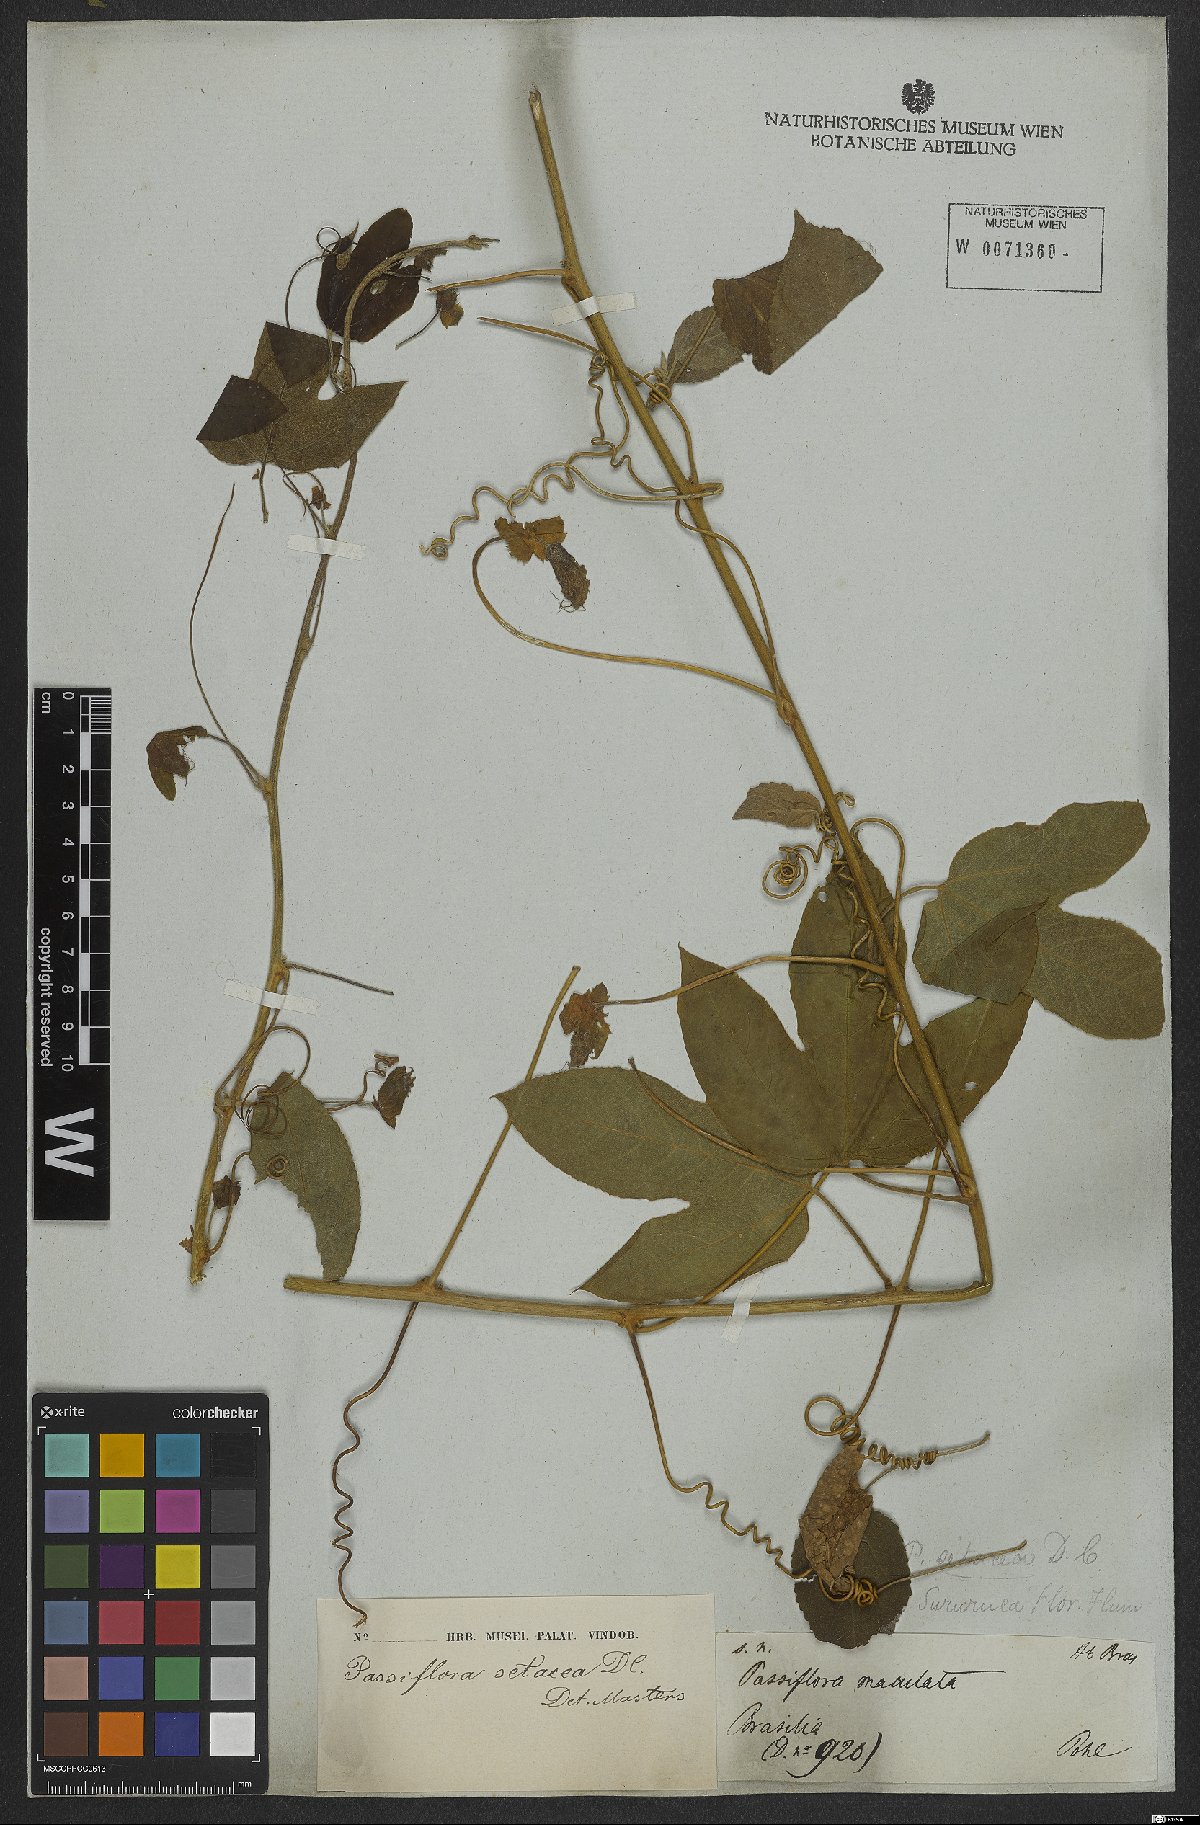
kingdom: Plantae
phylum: Tracheophyta
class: Magnoliopsida
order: Malpighiales
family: Passifloraceae
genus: Passiflora
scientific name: Passiflora setacea
